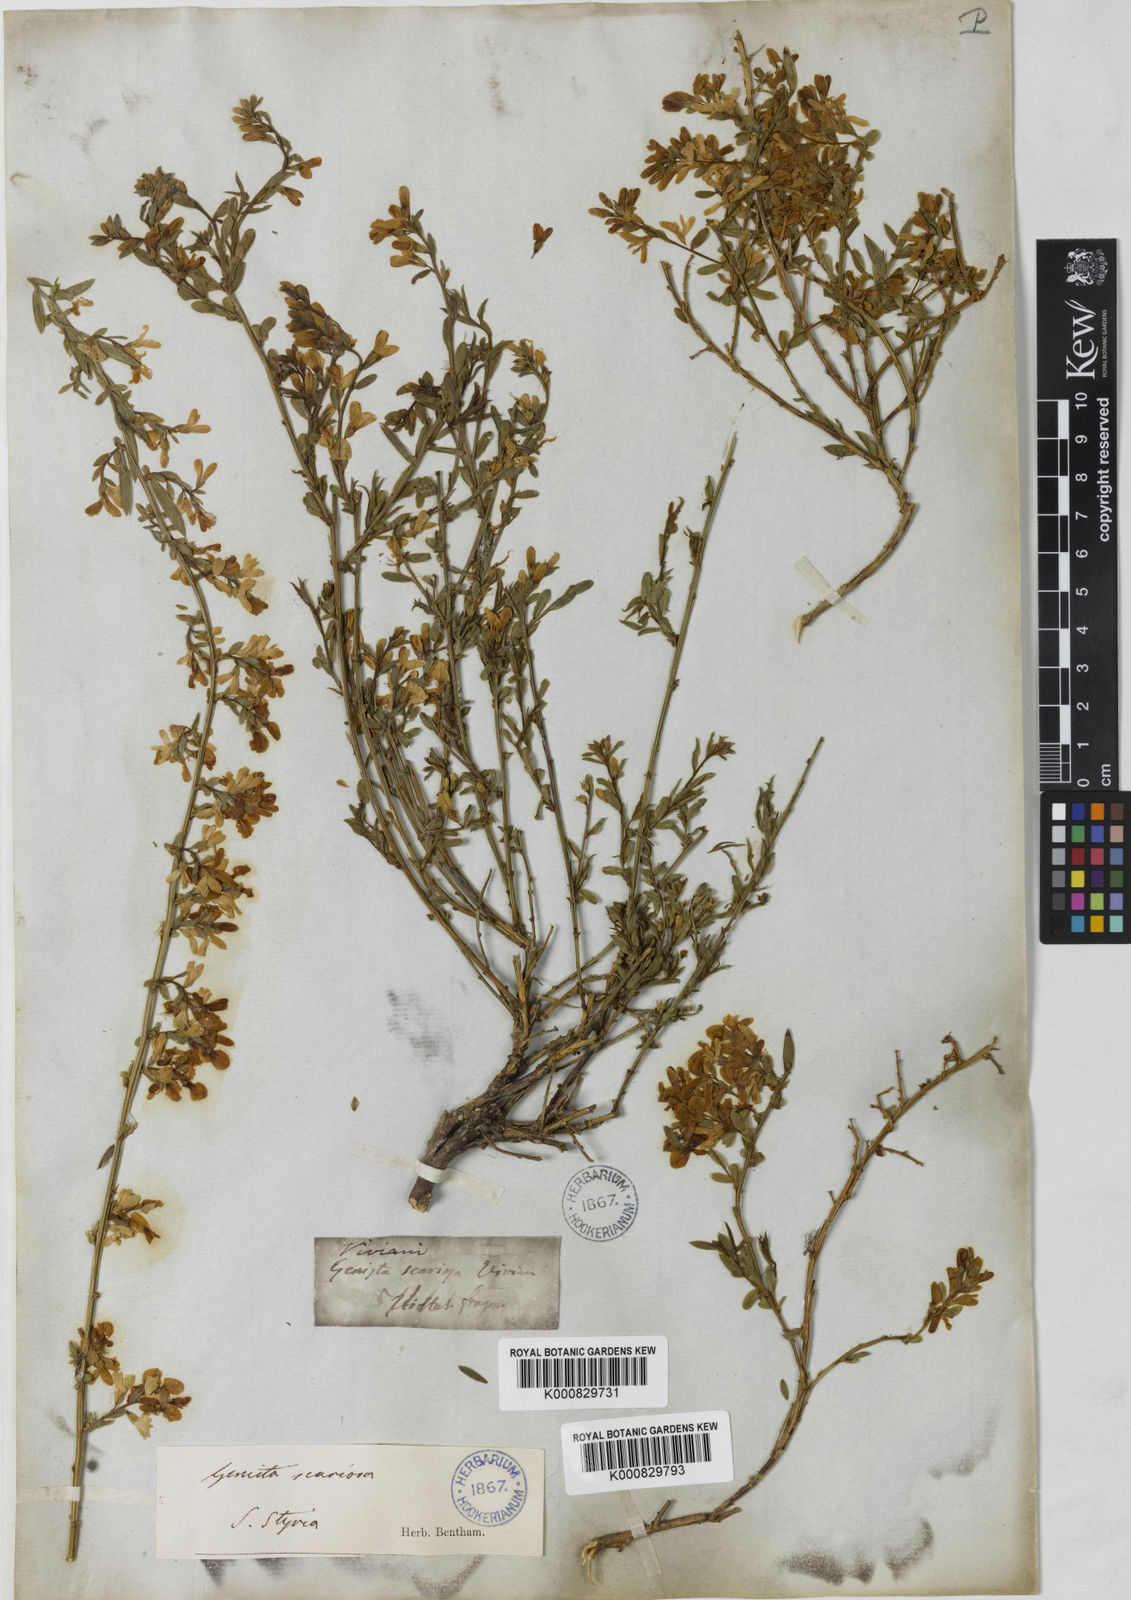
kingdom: Plantae
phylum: Tracheophyta
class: Magnoliopsida
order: Fabales
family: Fabaceae
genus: Genista
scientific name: Genista januensis
